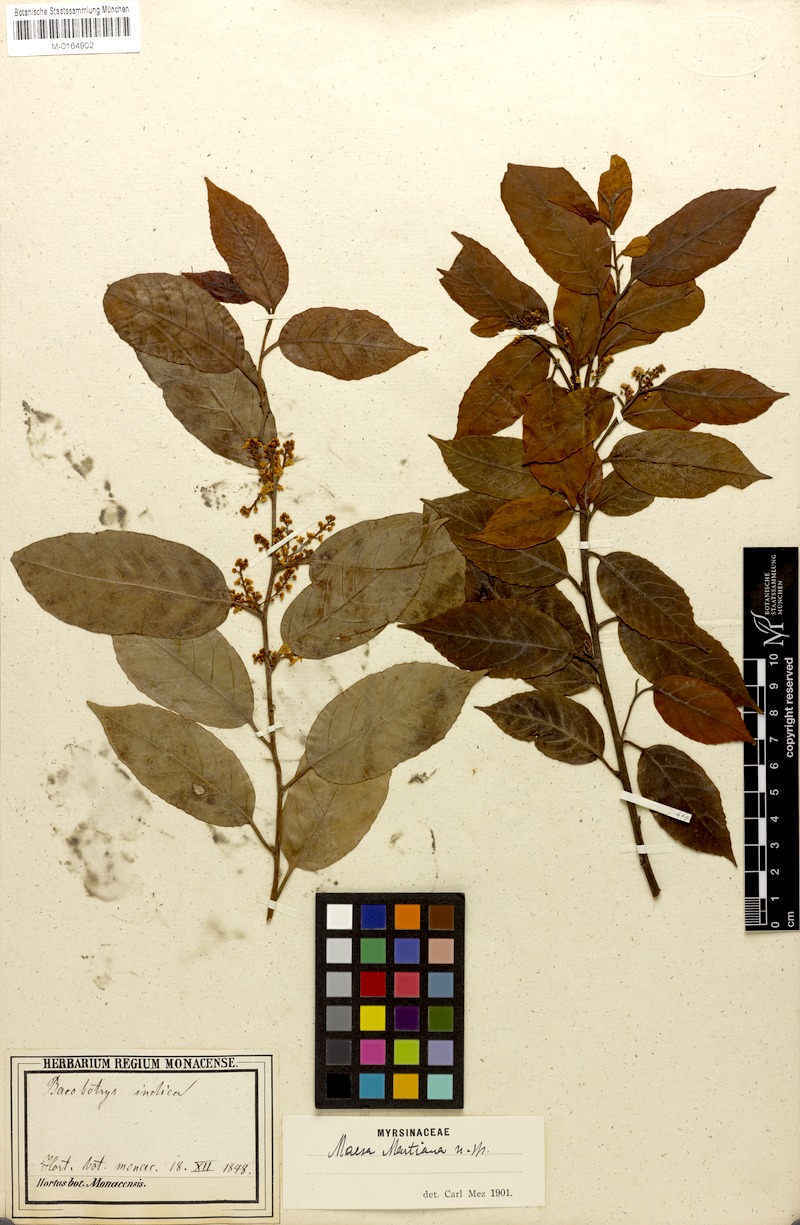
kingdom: Plantae
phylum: Tracheophyta
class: Magnoliopsida
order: Ericales
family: Primulaceae
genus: Maesa
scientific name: Maesa martiana
